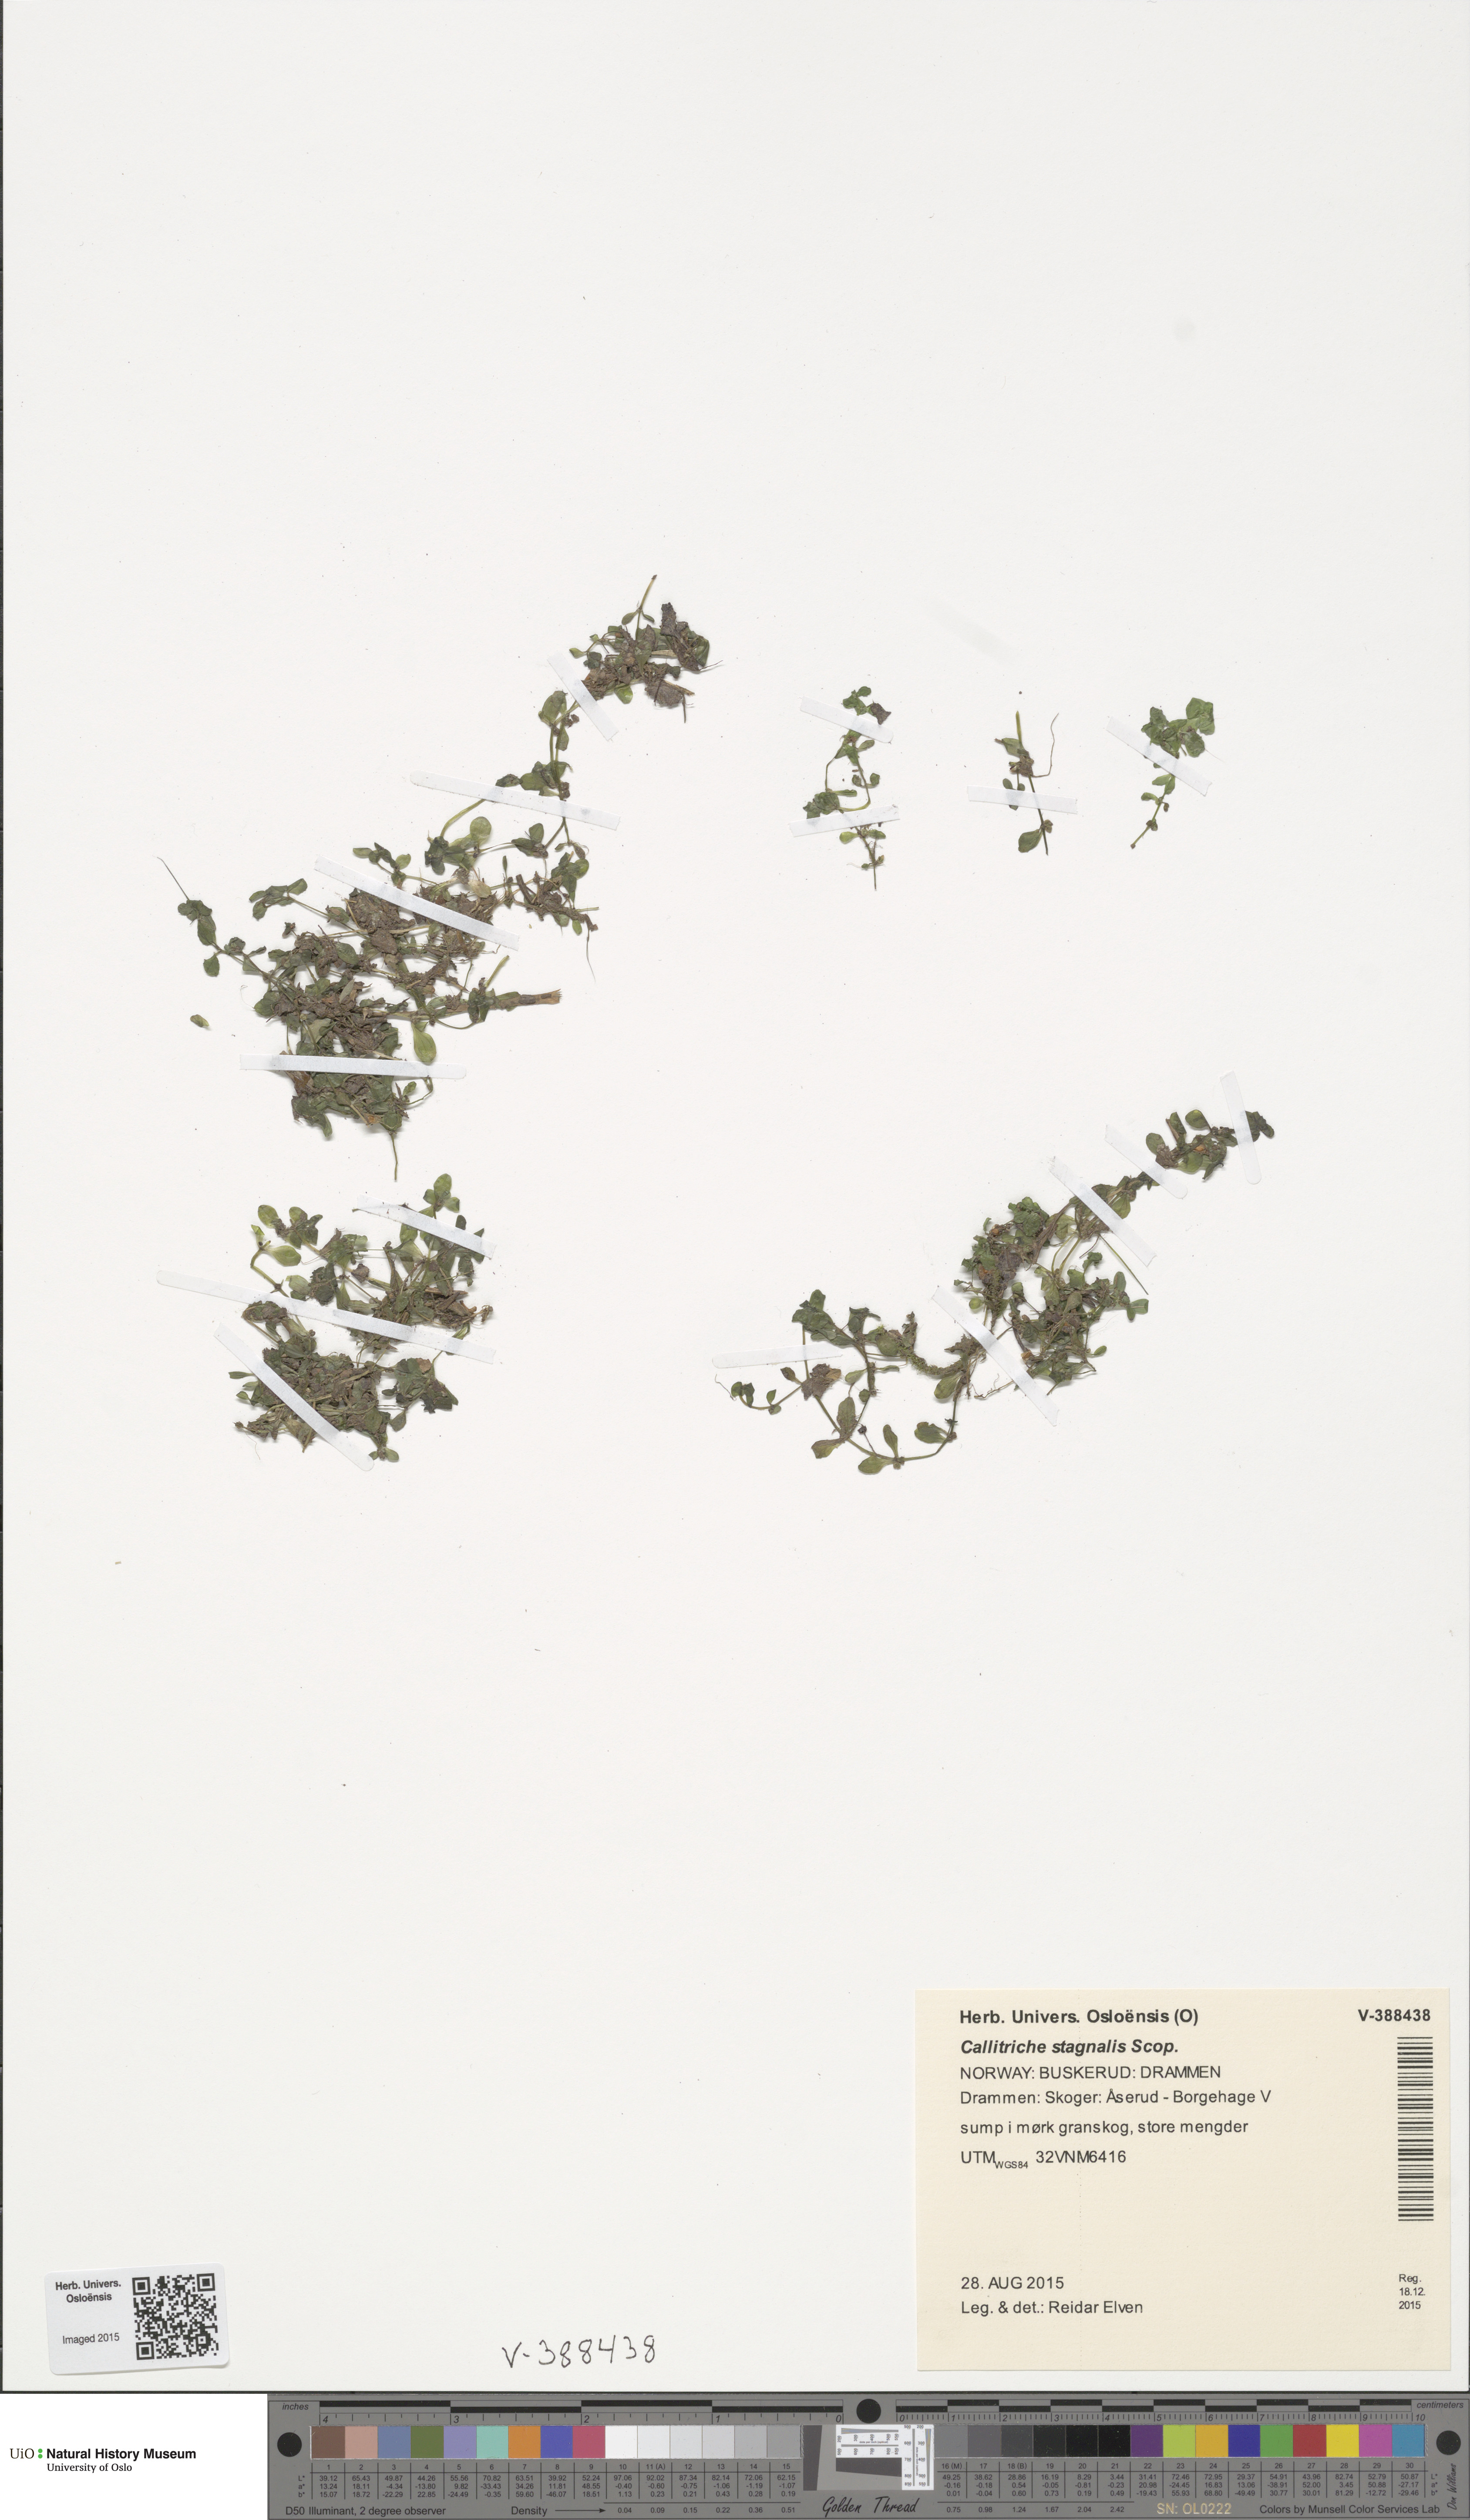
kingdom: Plantae
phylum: Tracheophyta
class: Magnoliopsida
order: Lamiales
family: Plantaginaceae
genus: Callitriche
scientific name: Callitriche stagnalis
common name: Common water-starwort
